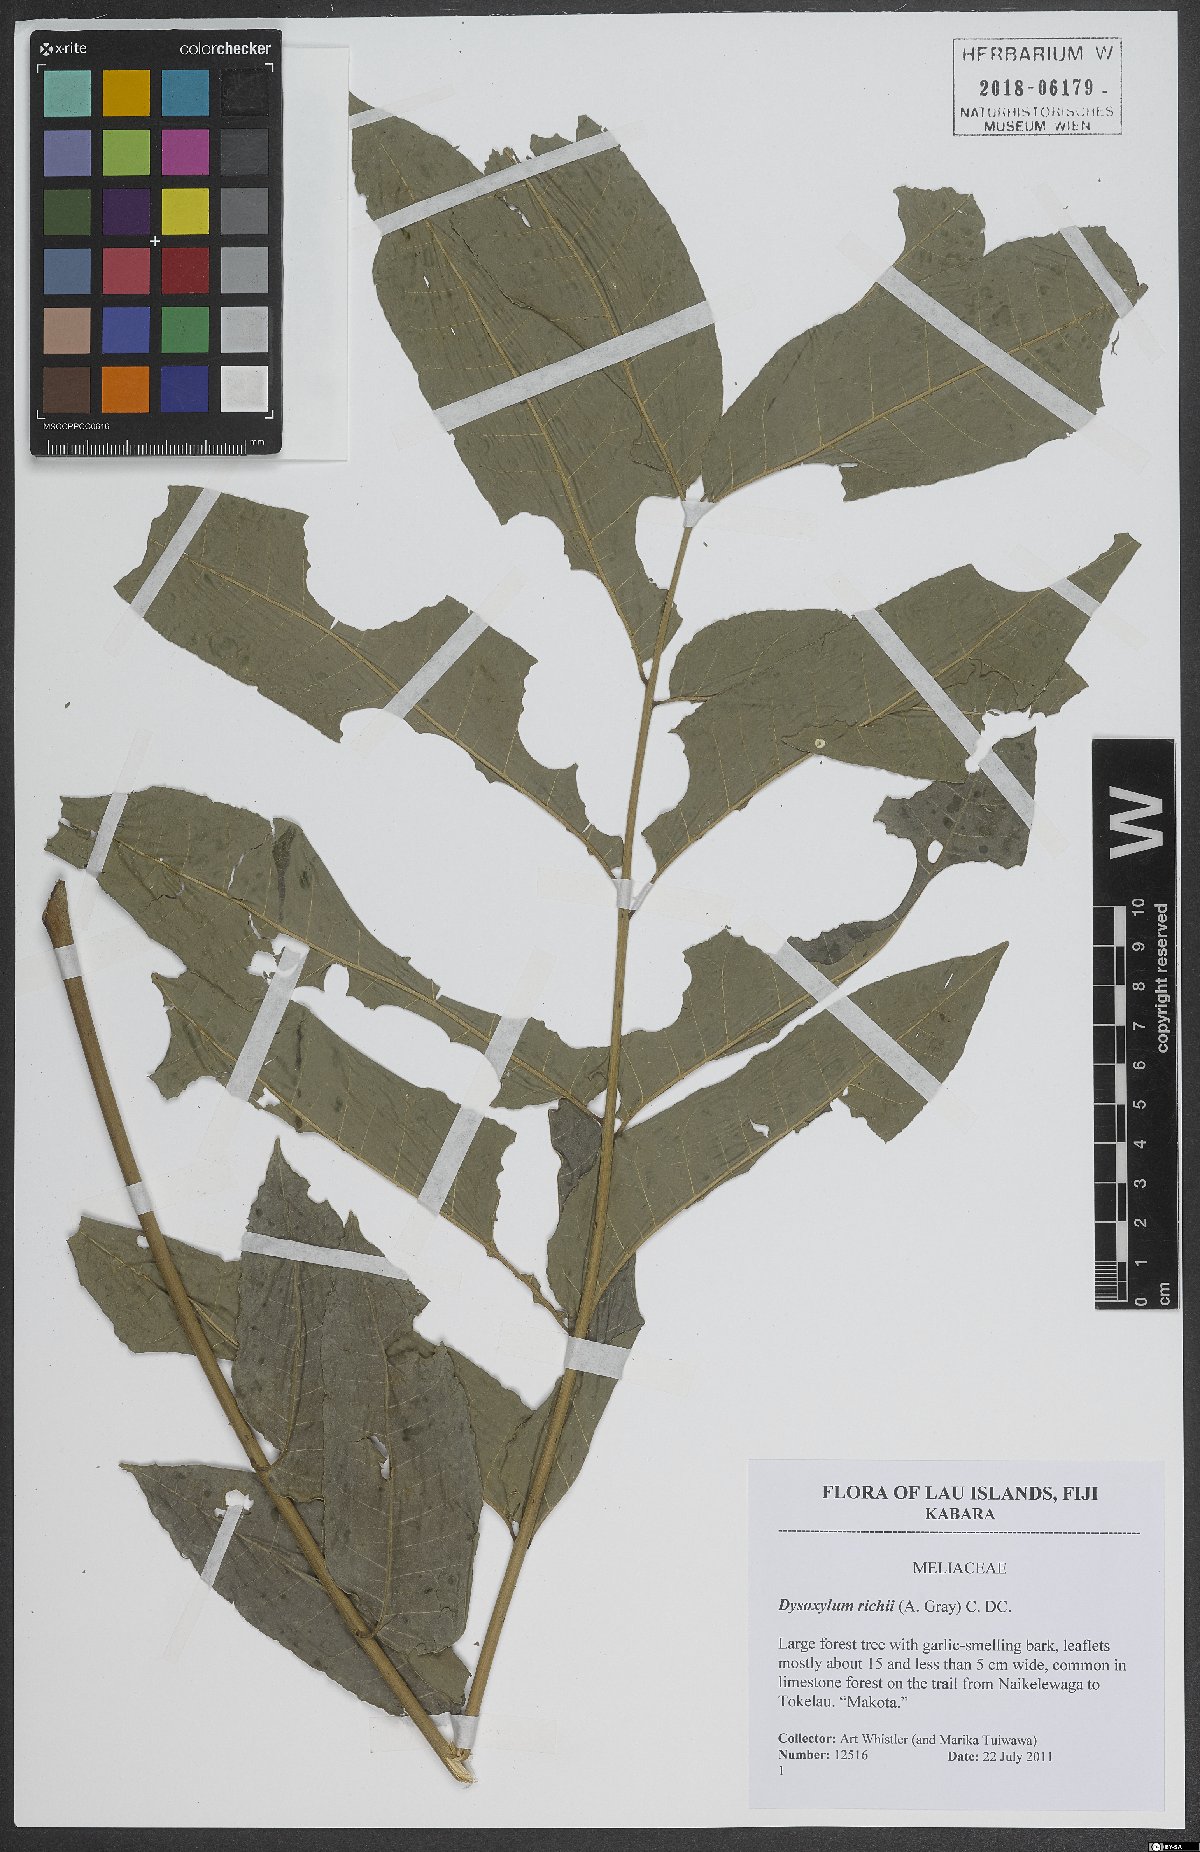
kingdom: Plantae
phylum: Tracheophyta
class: Magnoliopsida
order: Sapindales
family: Meliaceae
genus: Didymocheton
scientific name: Didymocheton alliaceus
